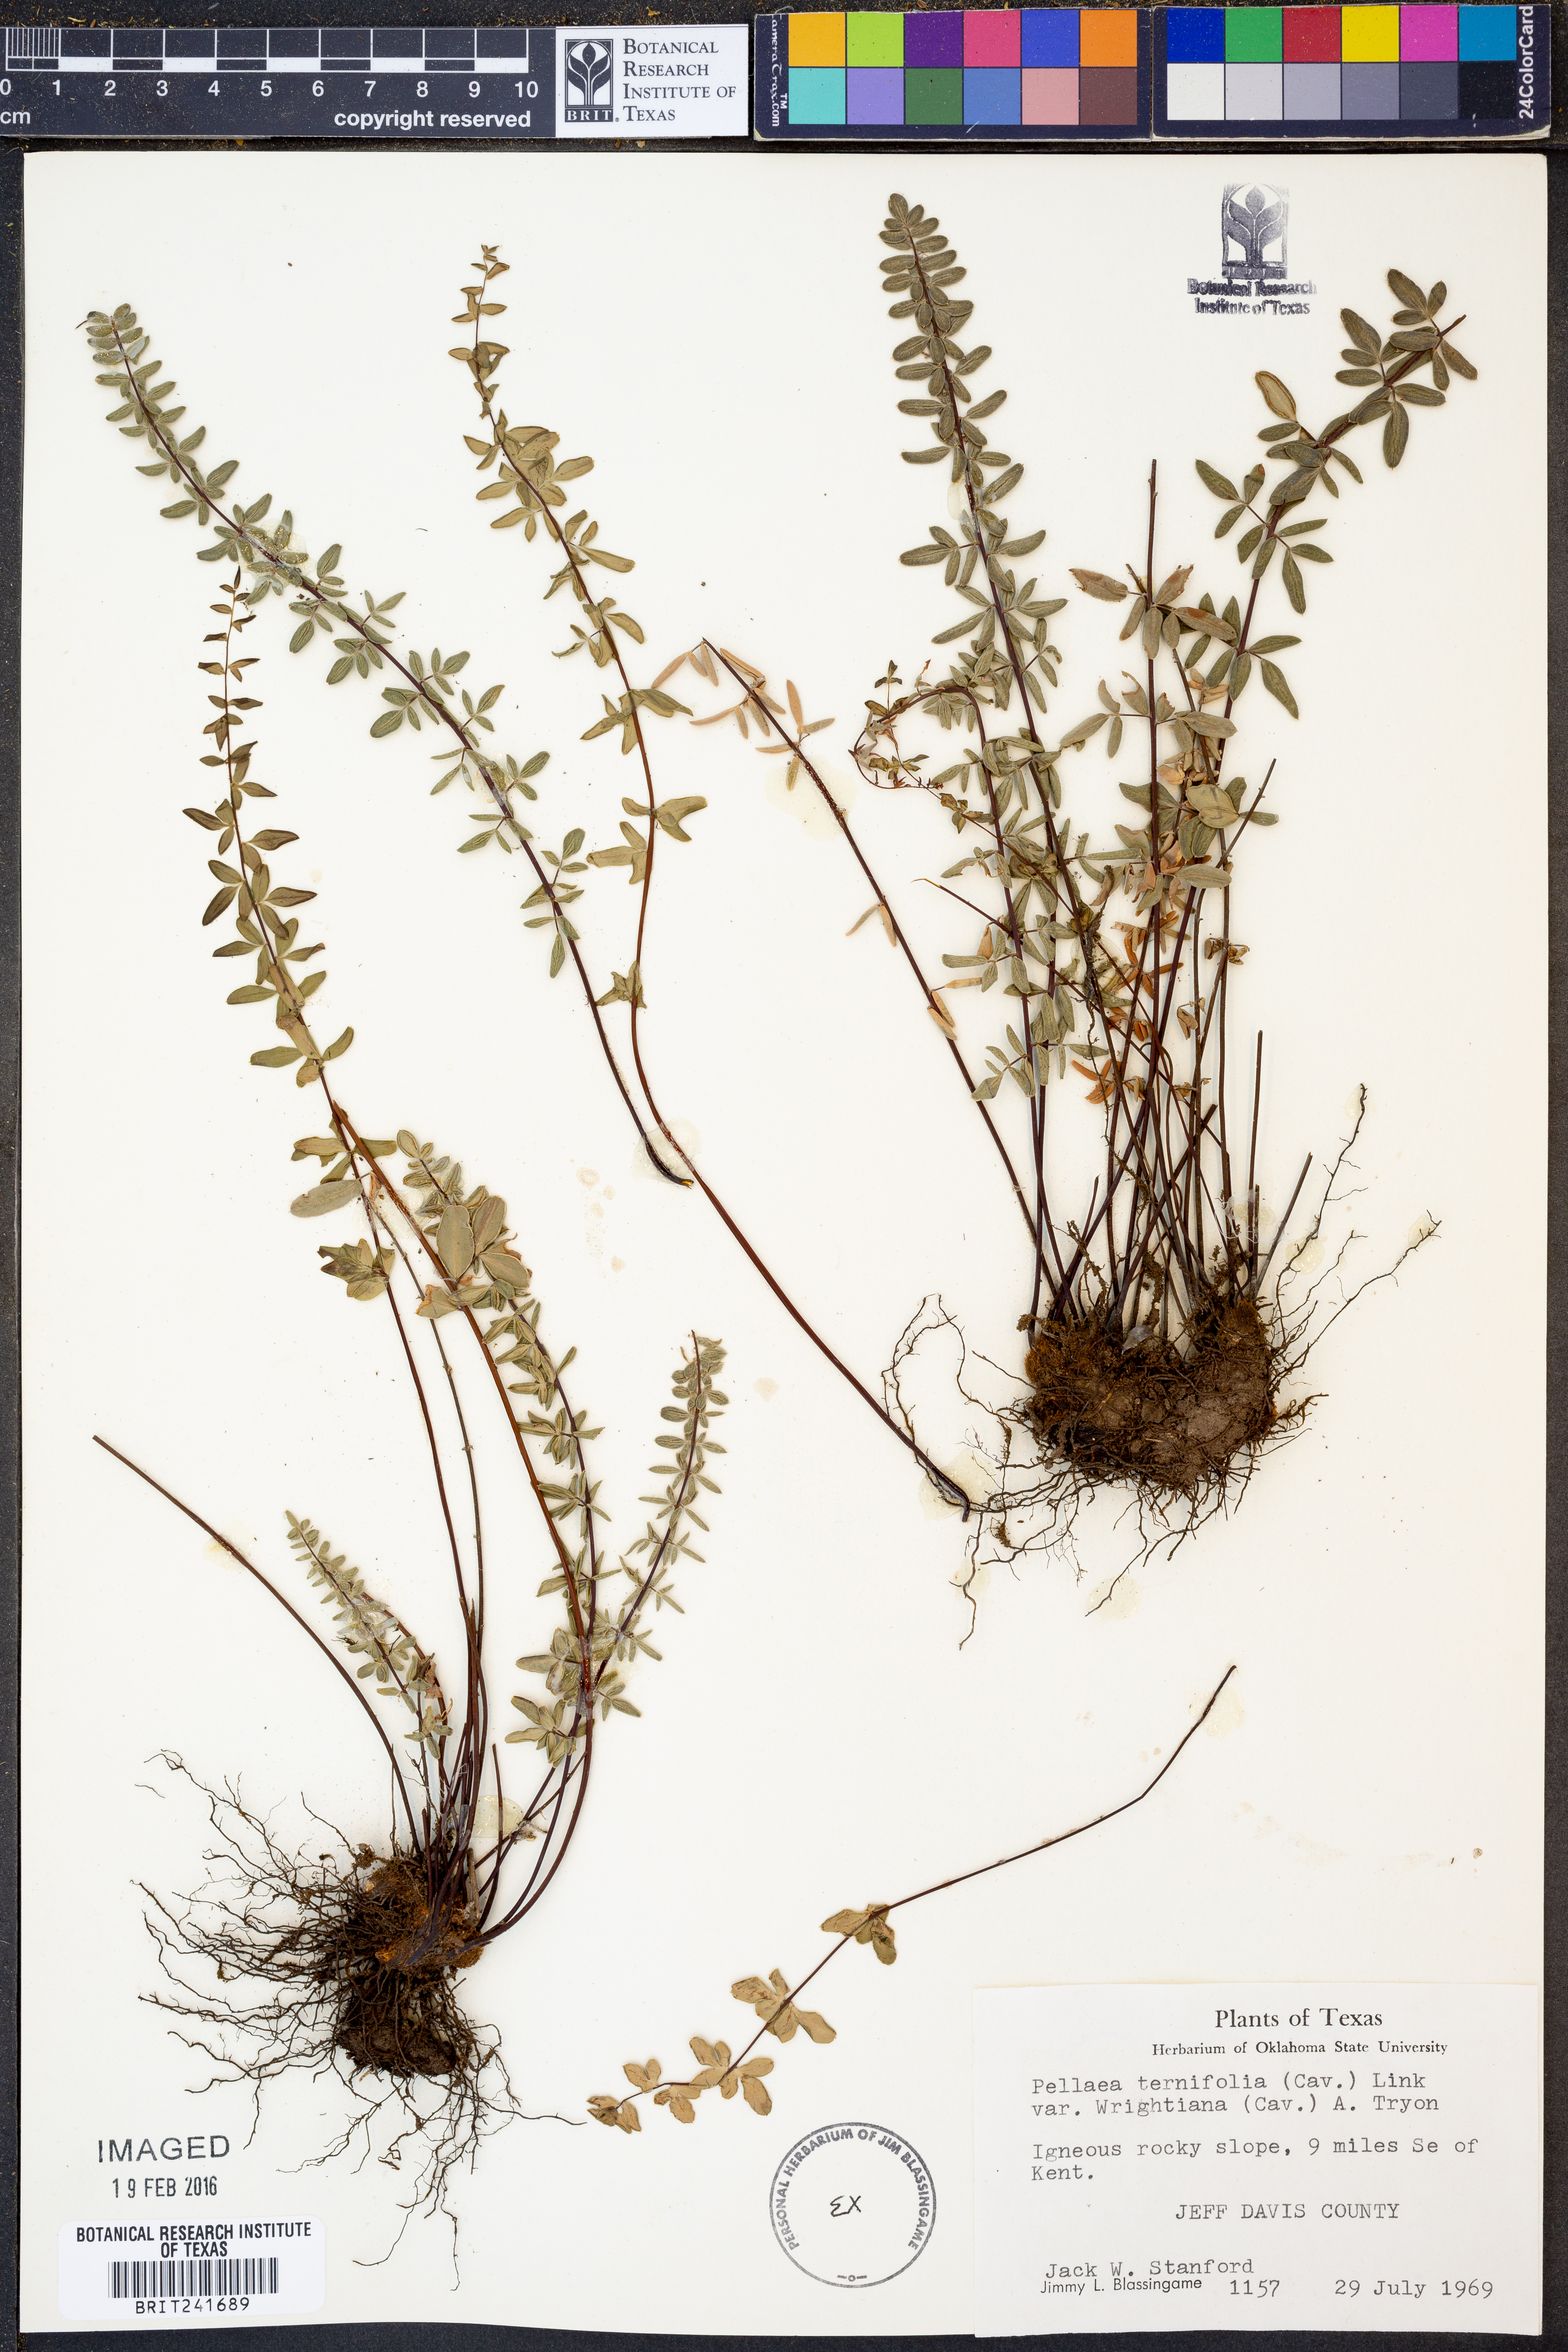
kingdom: Plantae
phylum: Tracheophyta
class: Polypodiopsida
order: Polypodiales
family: Pteridaceae
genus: Pellaea
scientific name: Pellaea wrightiana
